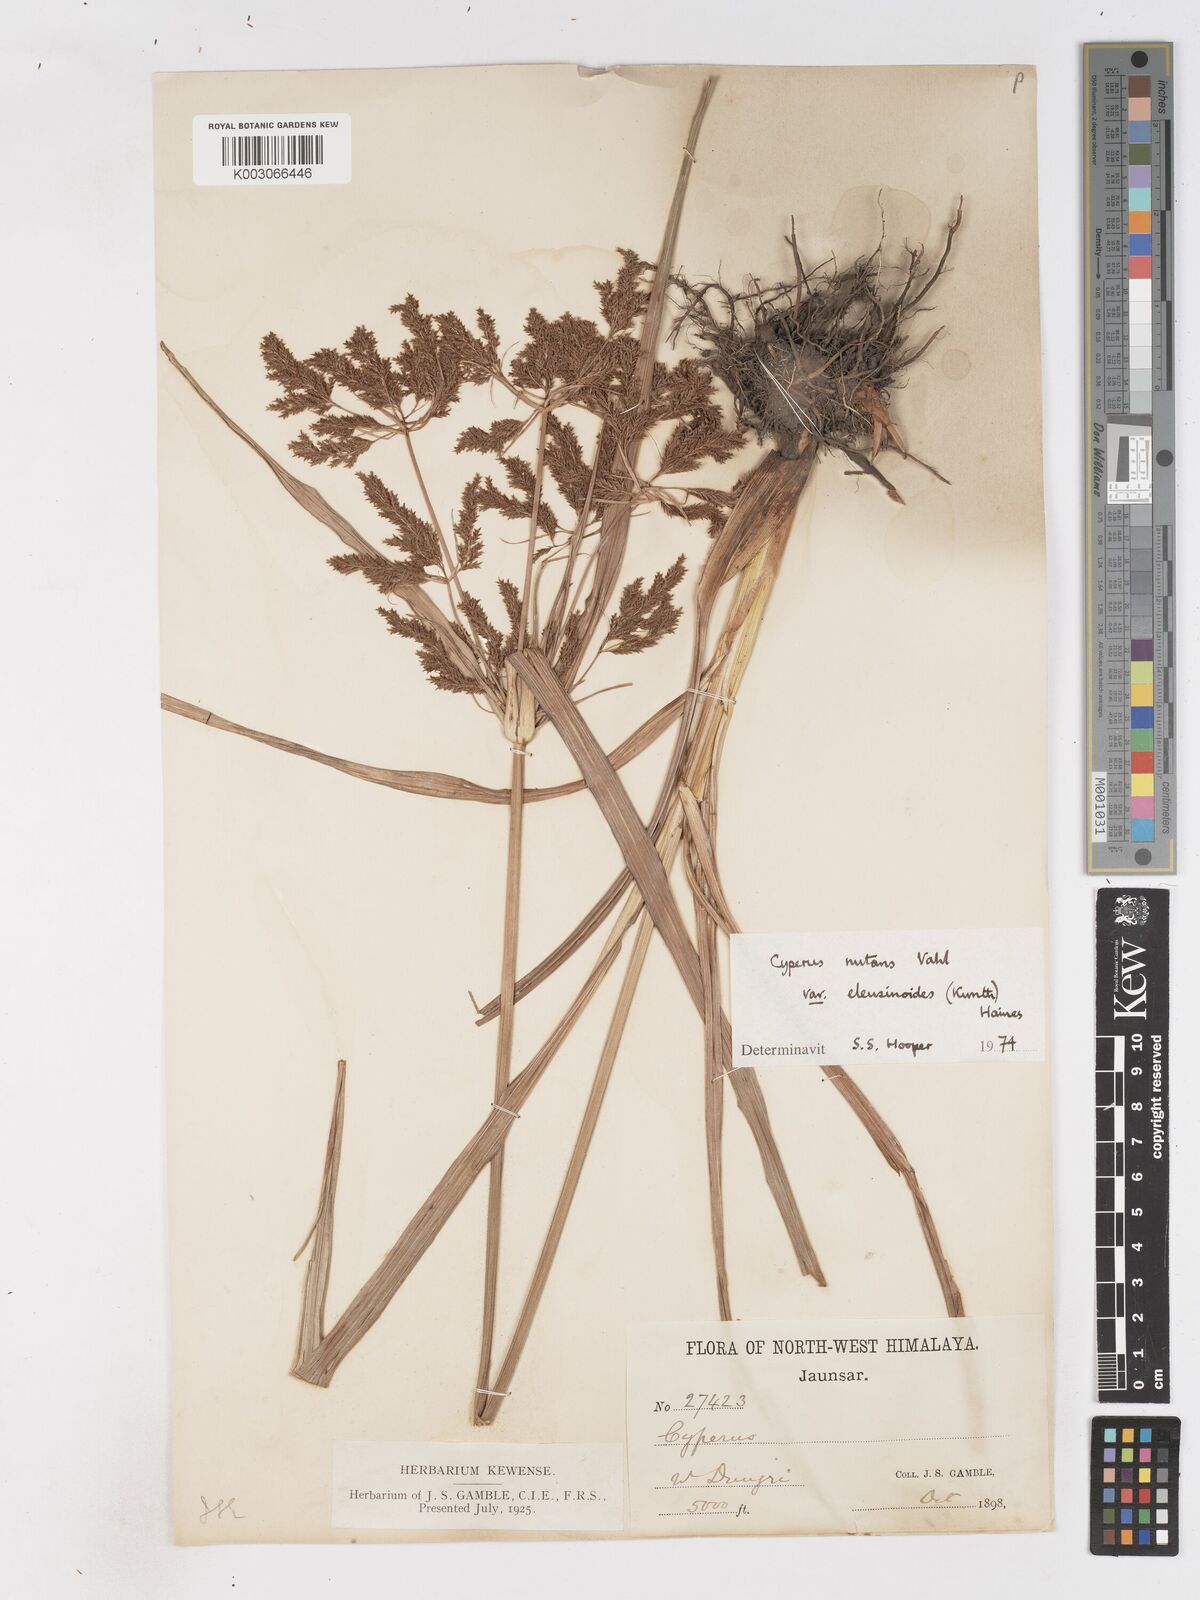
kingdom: Plantae
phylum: Tracheophyta
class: Liliopsida
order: Poales
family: Cyperaceae
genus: Cyperus
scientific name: Cyperus nutans
